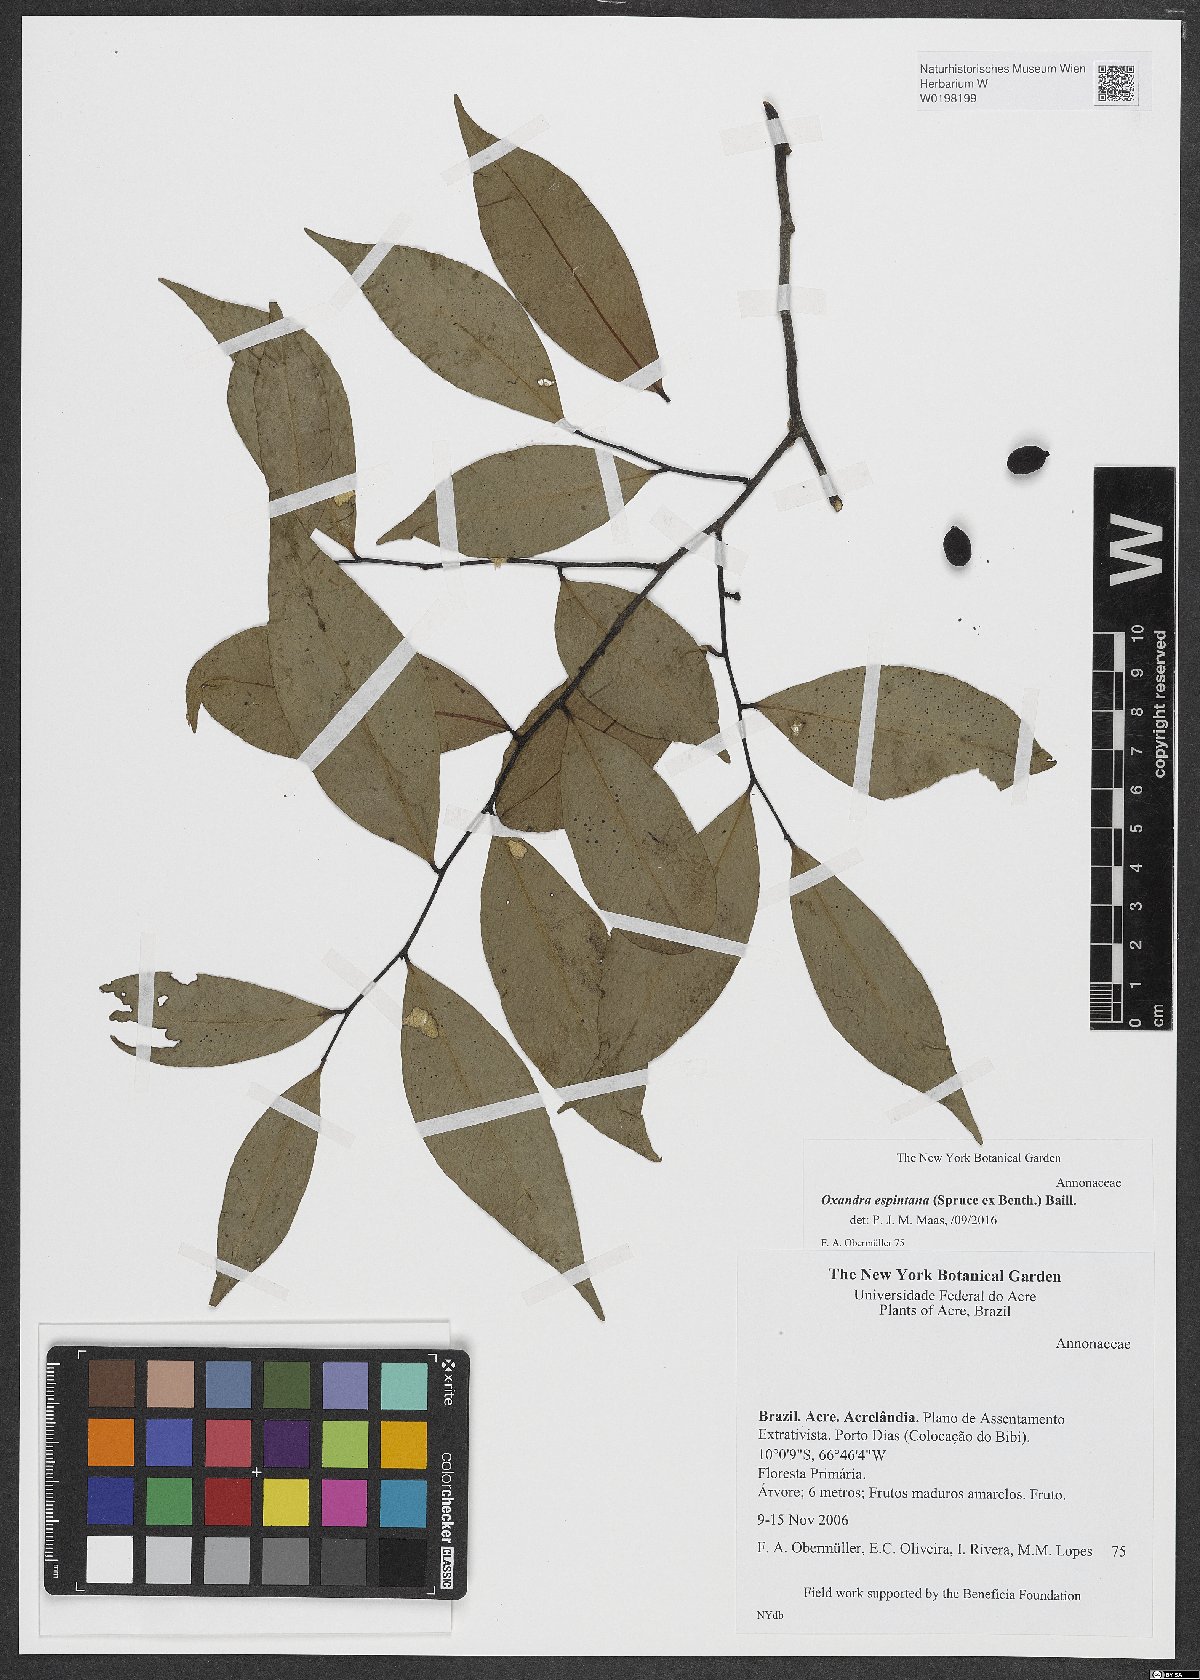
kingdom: Plantae
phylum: Tracheophyta
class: Magnoliopsida
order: Magnoliales
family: Annonaceae
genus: Oxandra
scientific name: Oxandra espintana
